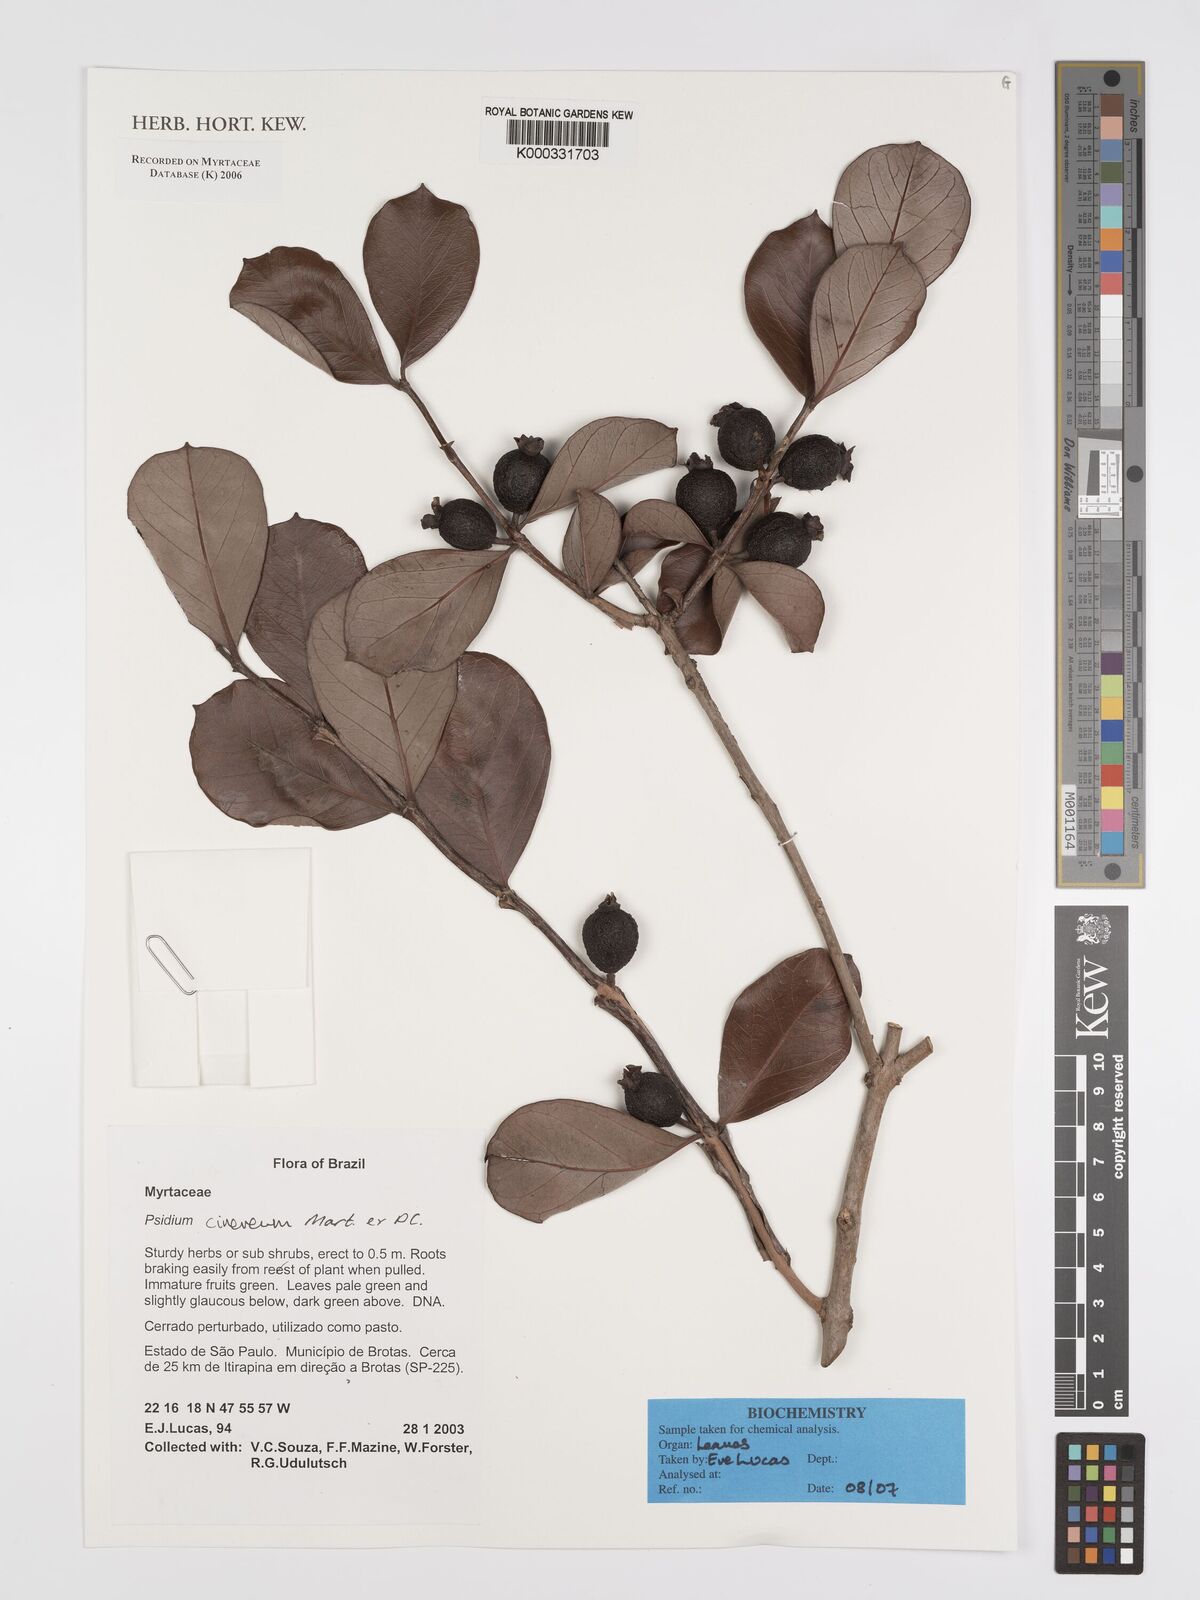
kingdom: Plantae
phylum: Tracheophyta
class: Magnoliopsida
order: Myrtales
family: Myrtaceae
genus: Psidium
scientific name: Psidium grandifolium
